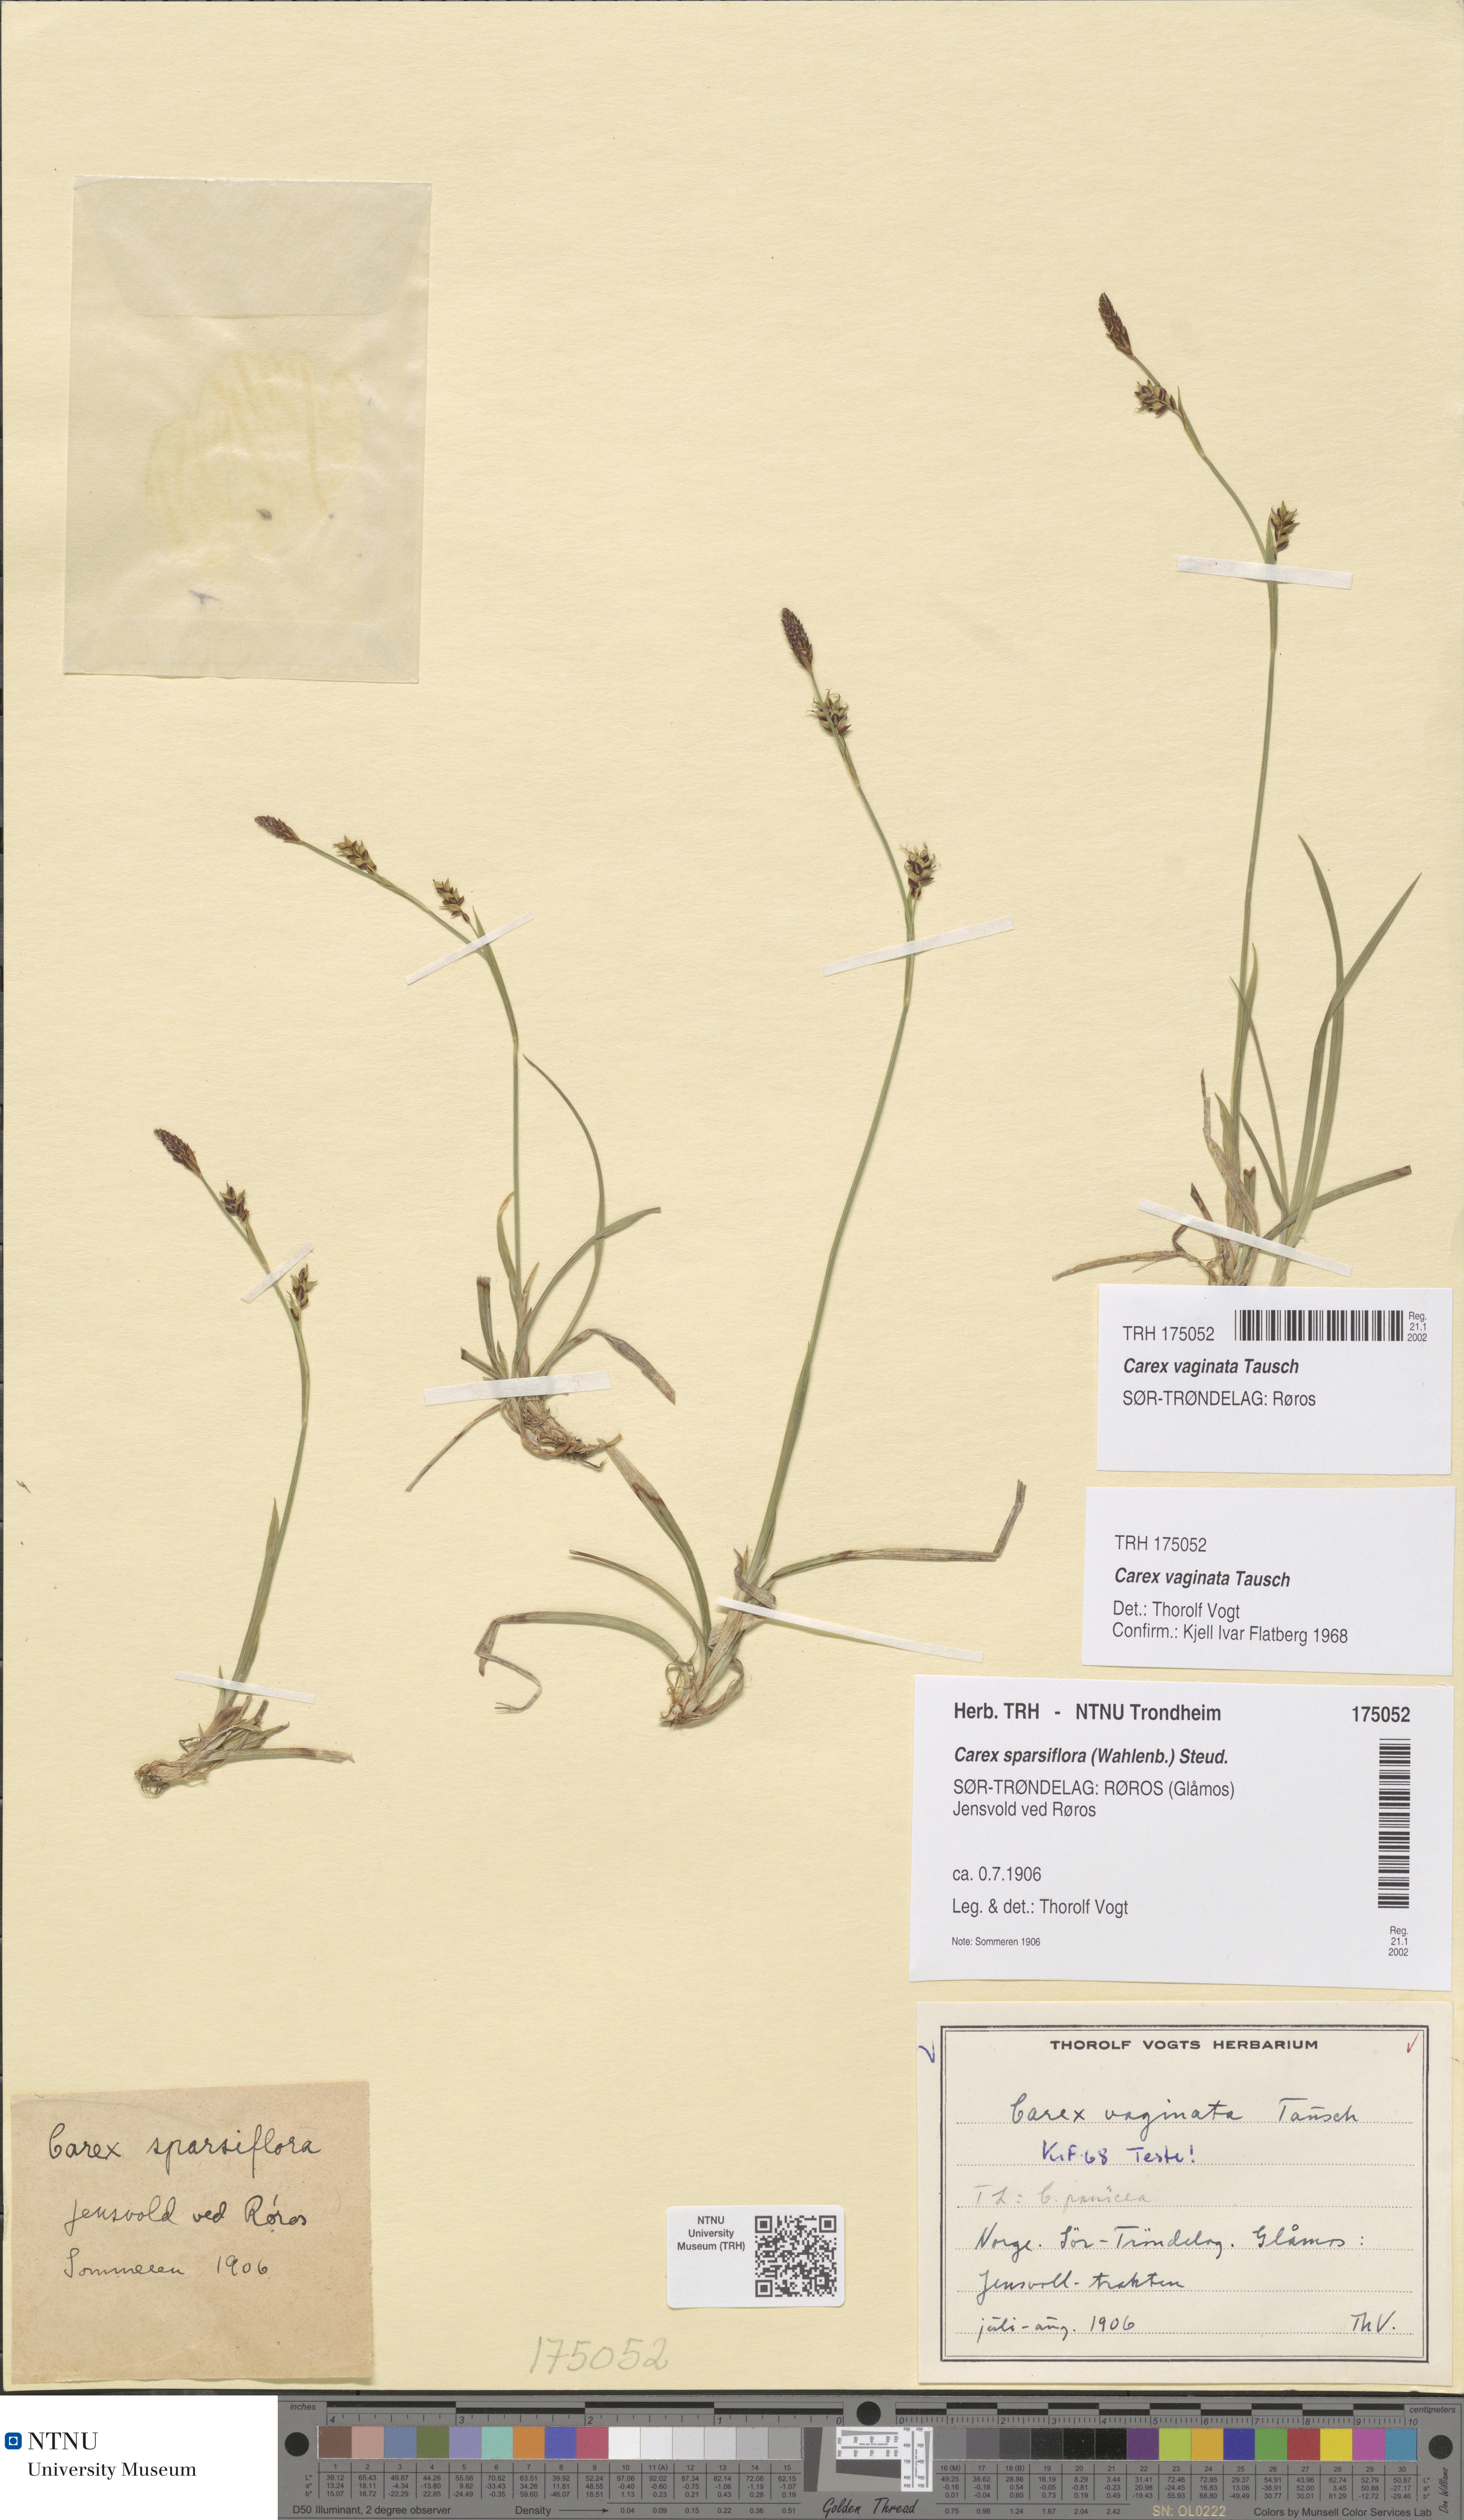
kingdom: Plantae
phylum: Tracheophyta
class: Liliopsida
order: Poales
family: Cyperaceae
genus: Carex
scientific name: Carex algida
